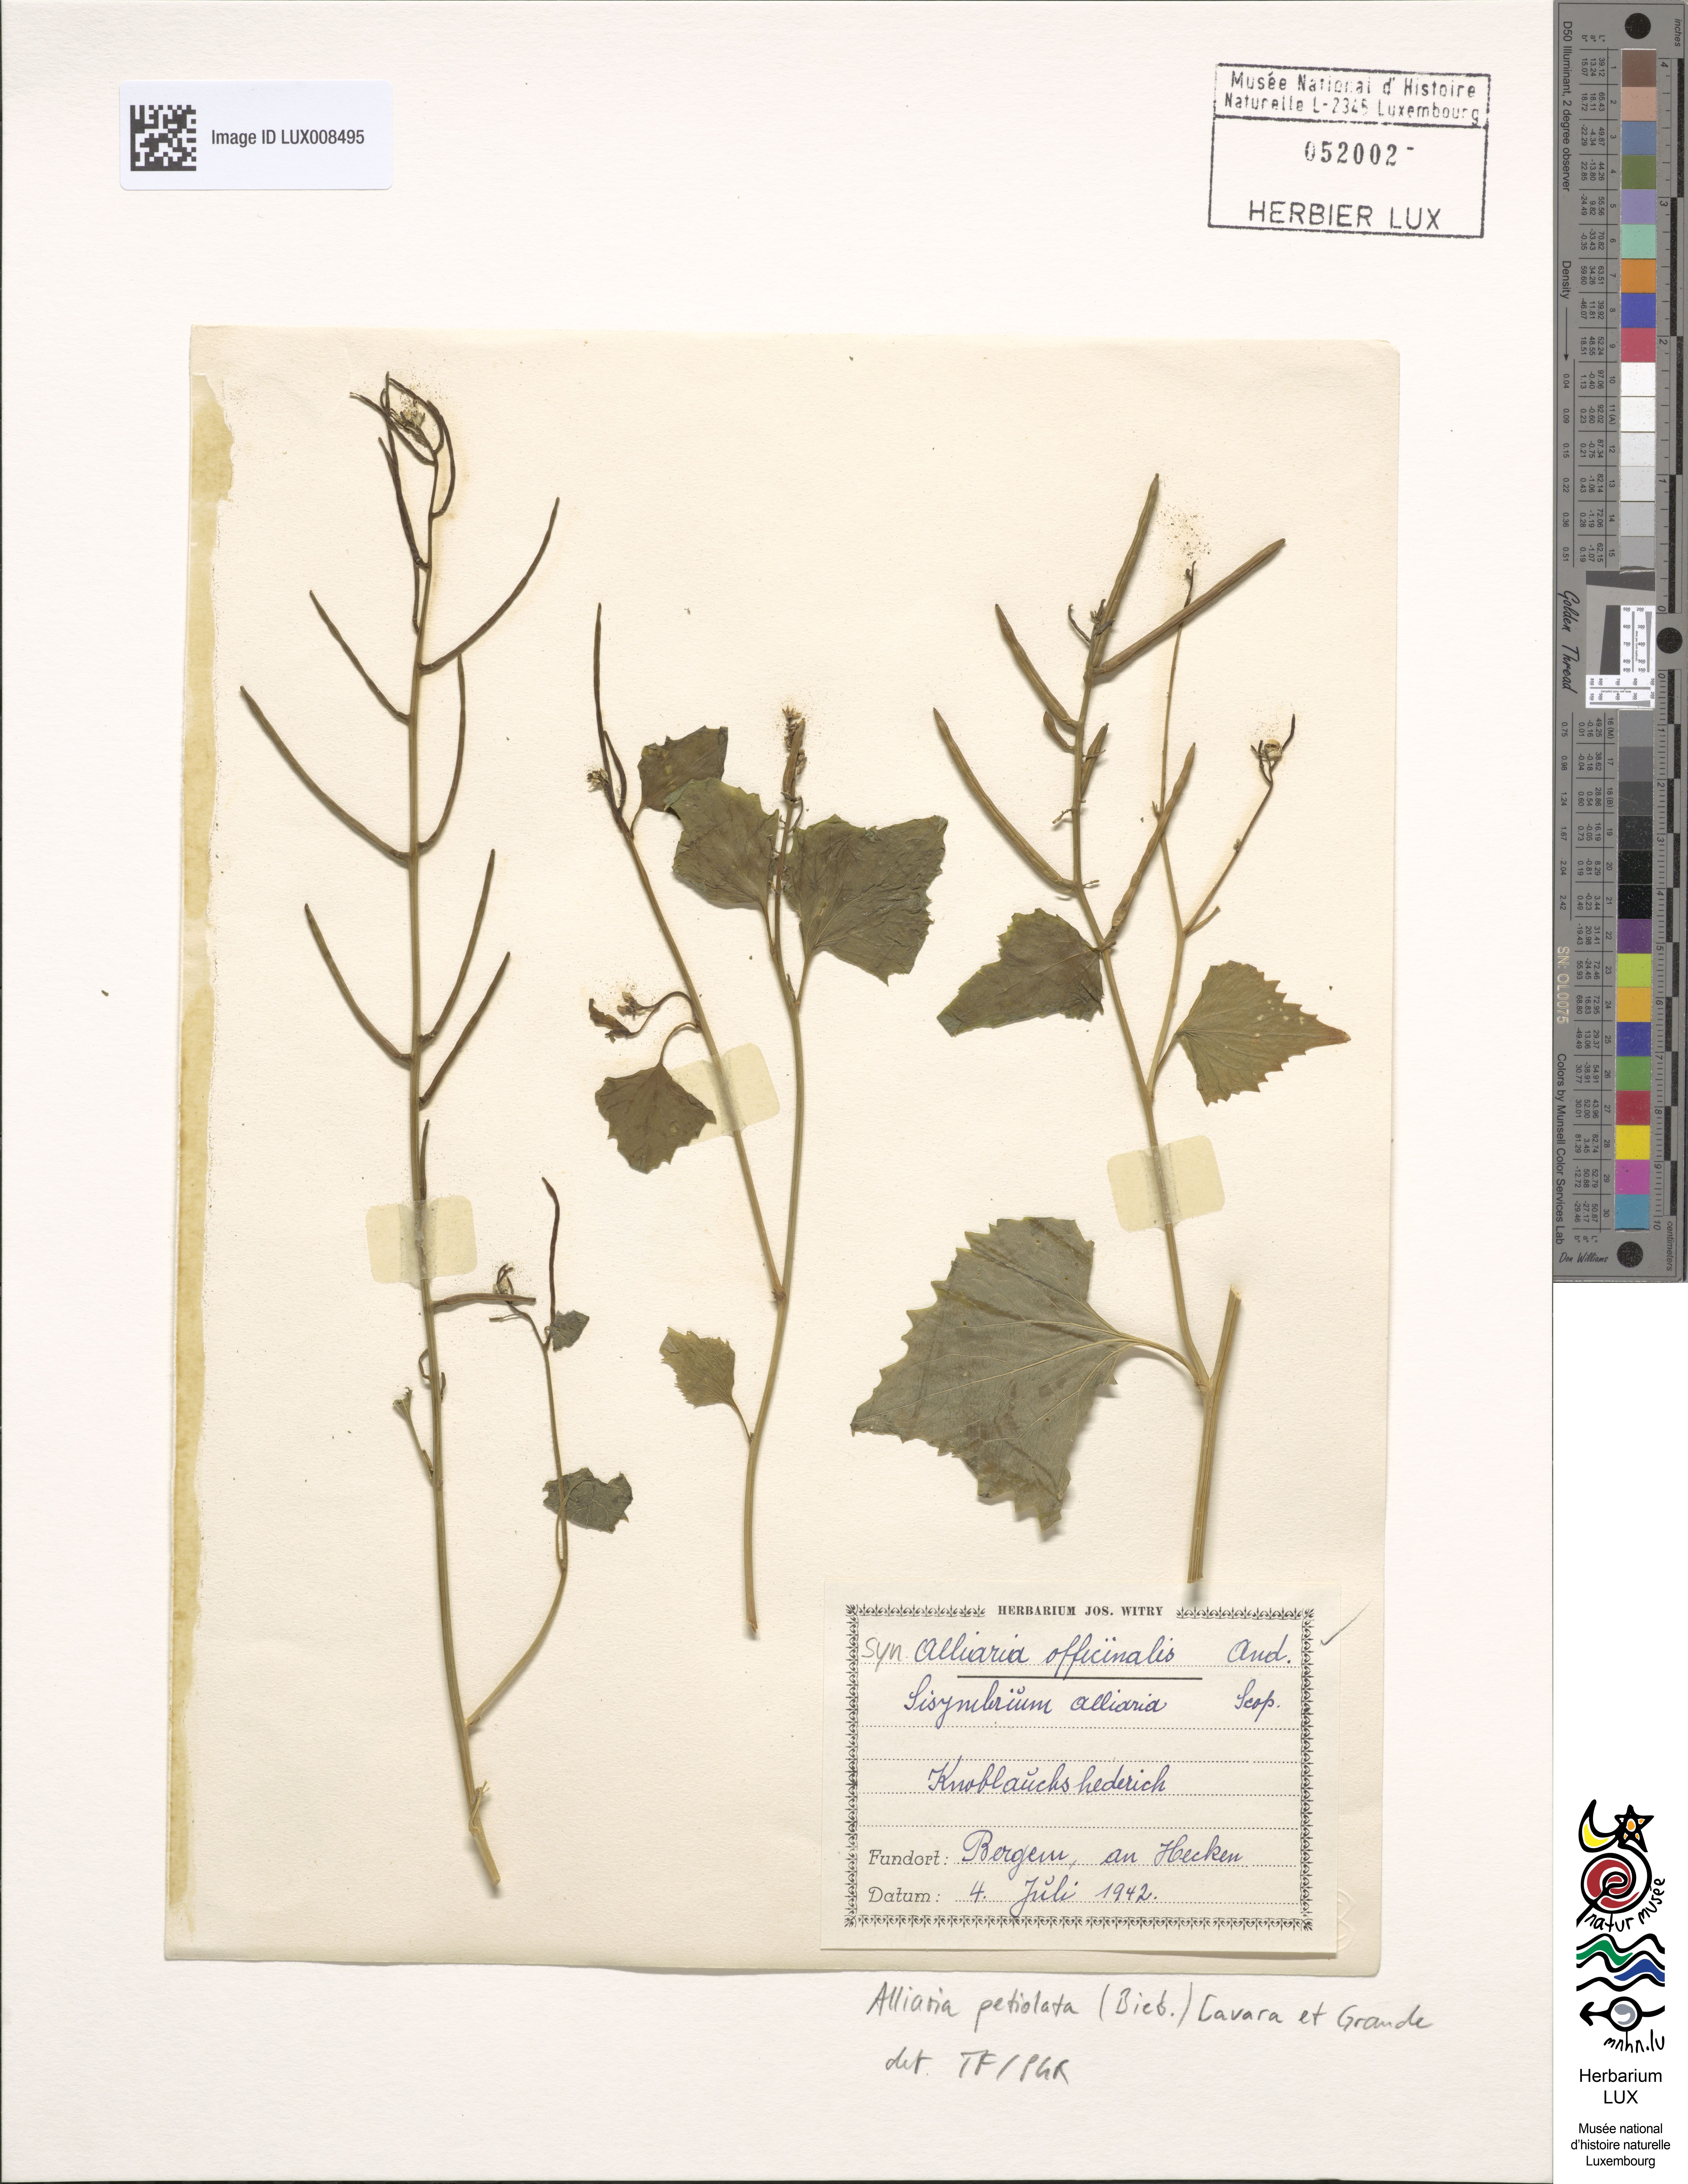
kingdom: Plantae
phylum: Tracheophyta
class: Magnoliopsida
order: Brassicales
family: Brassicaceae
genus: Alliaria
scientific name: Alliaria petiolata
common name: Garlic mustard
